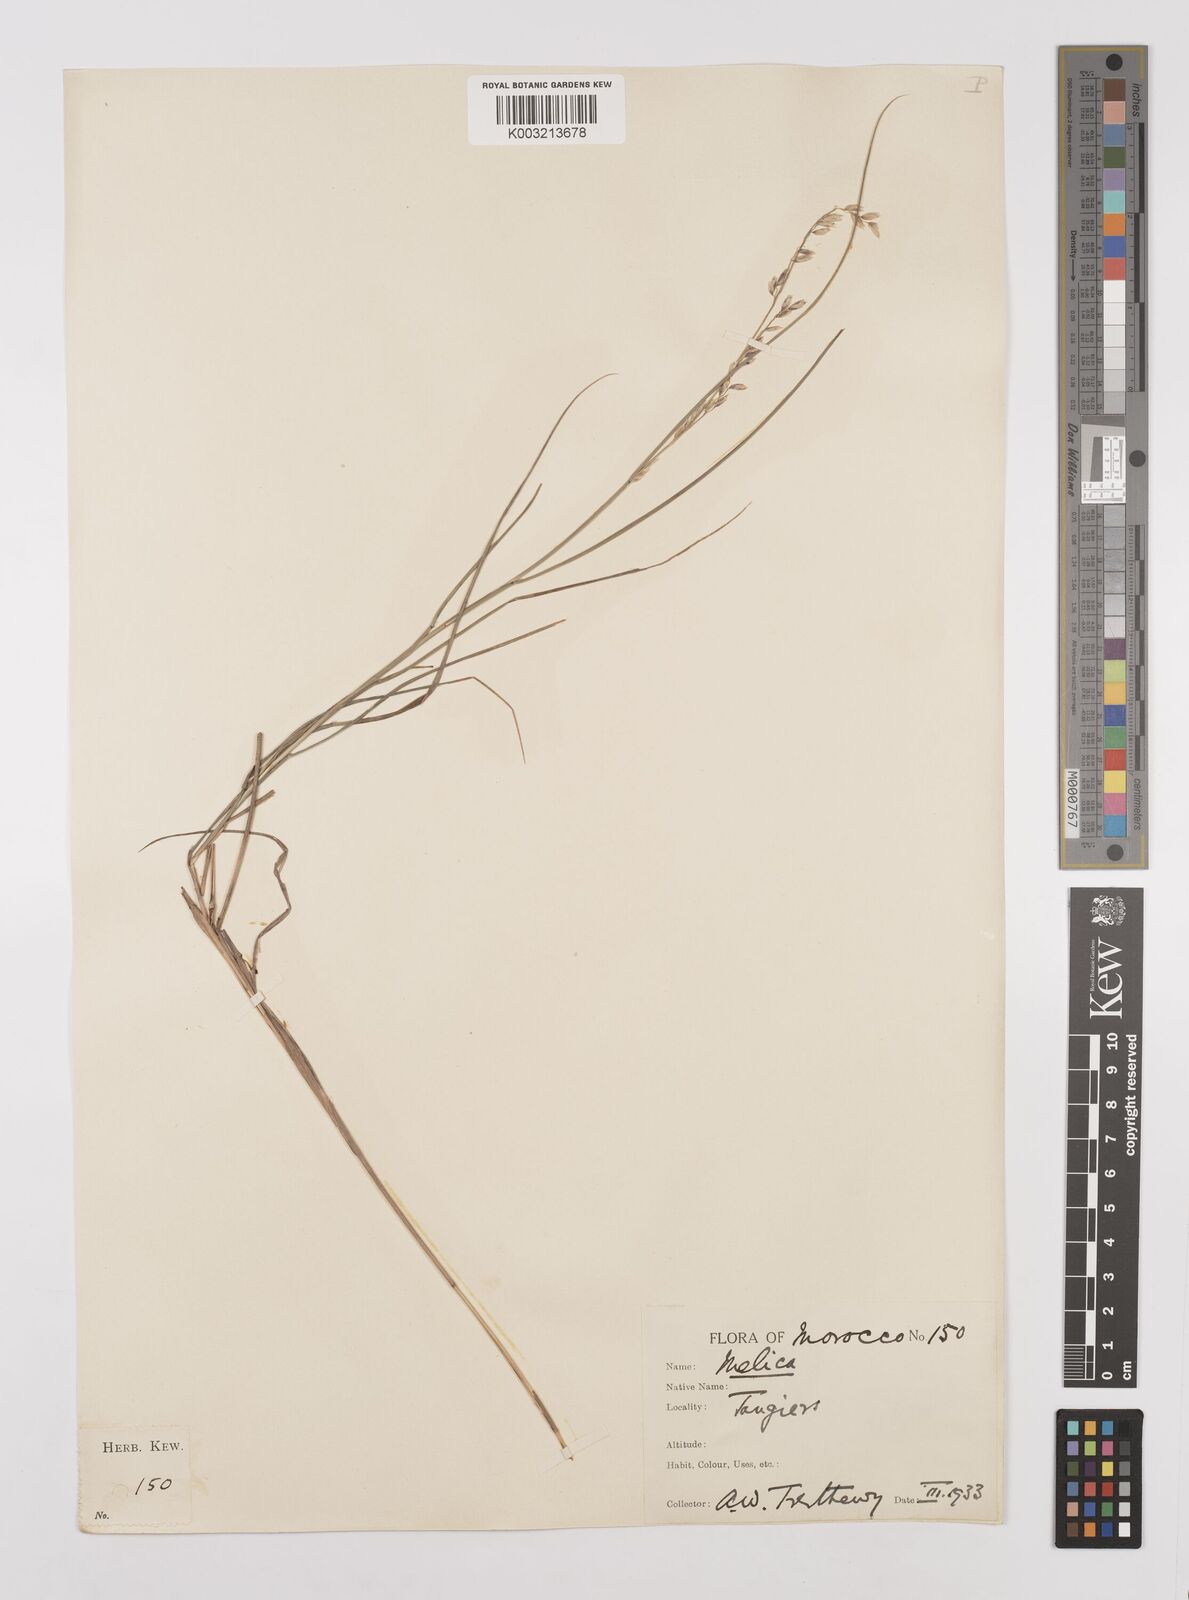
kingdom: Plantae
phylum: Tracheophyta
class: Liliopsida
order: Poales
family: Poaceae
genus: Melica
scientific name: Melica minuta
